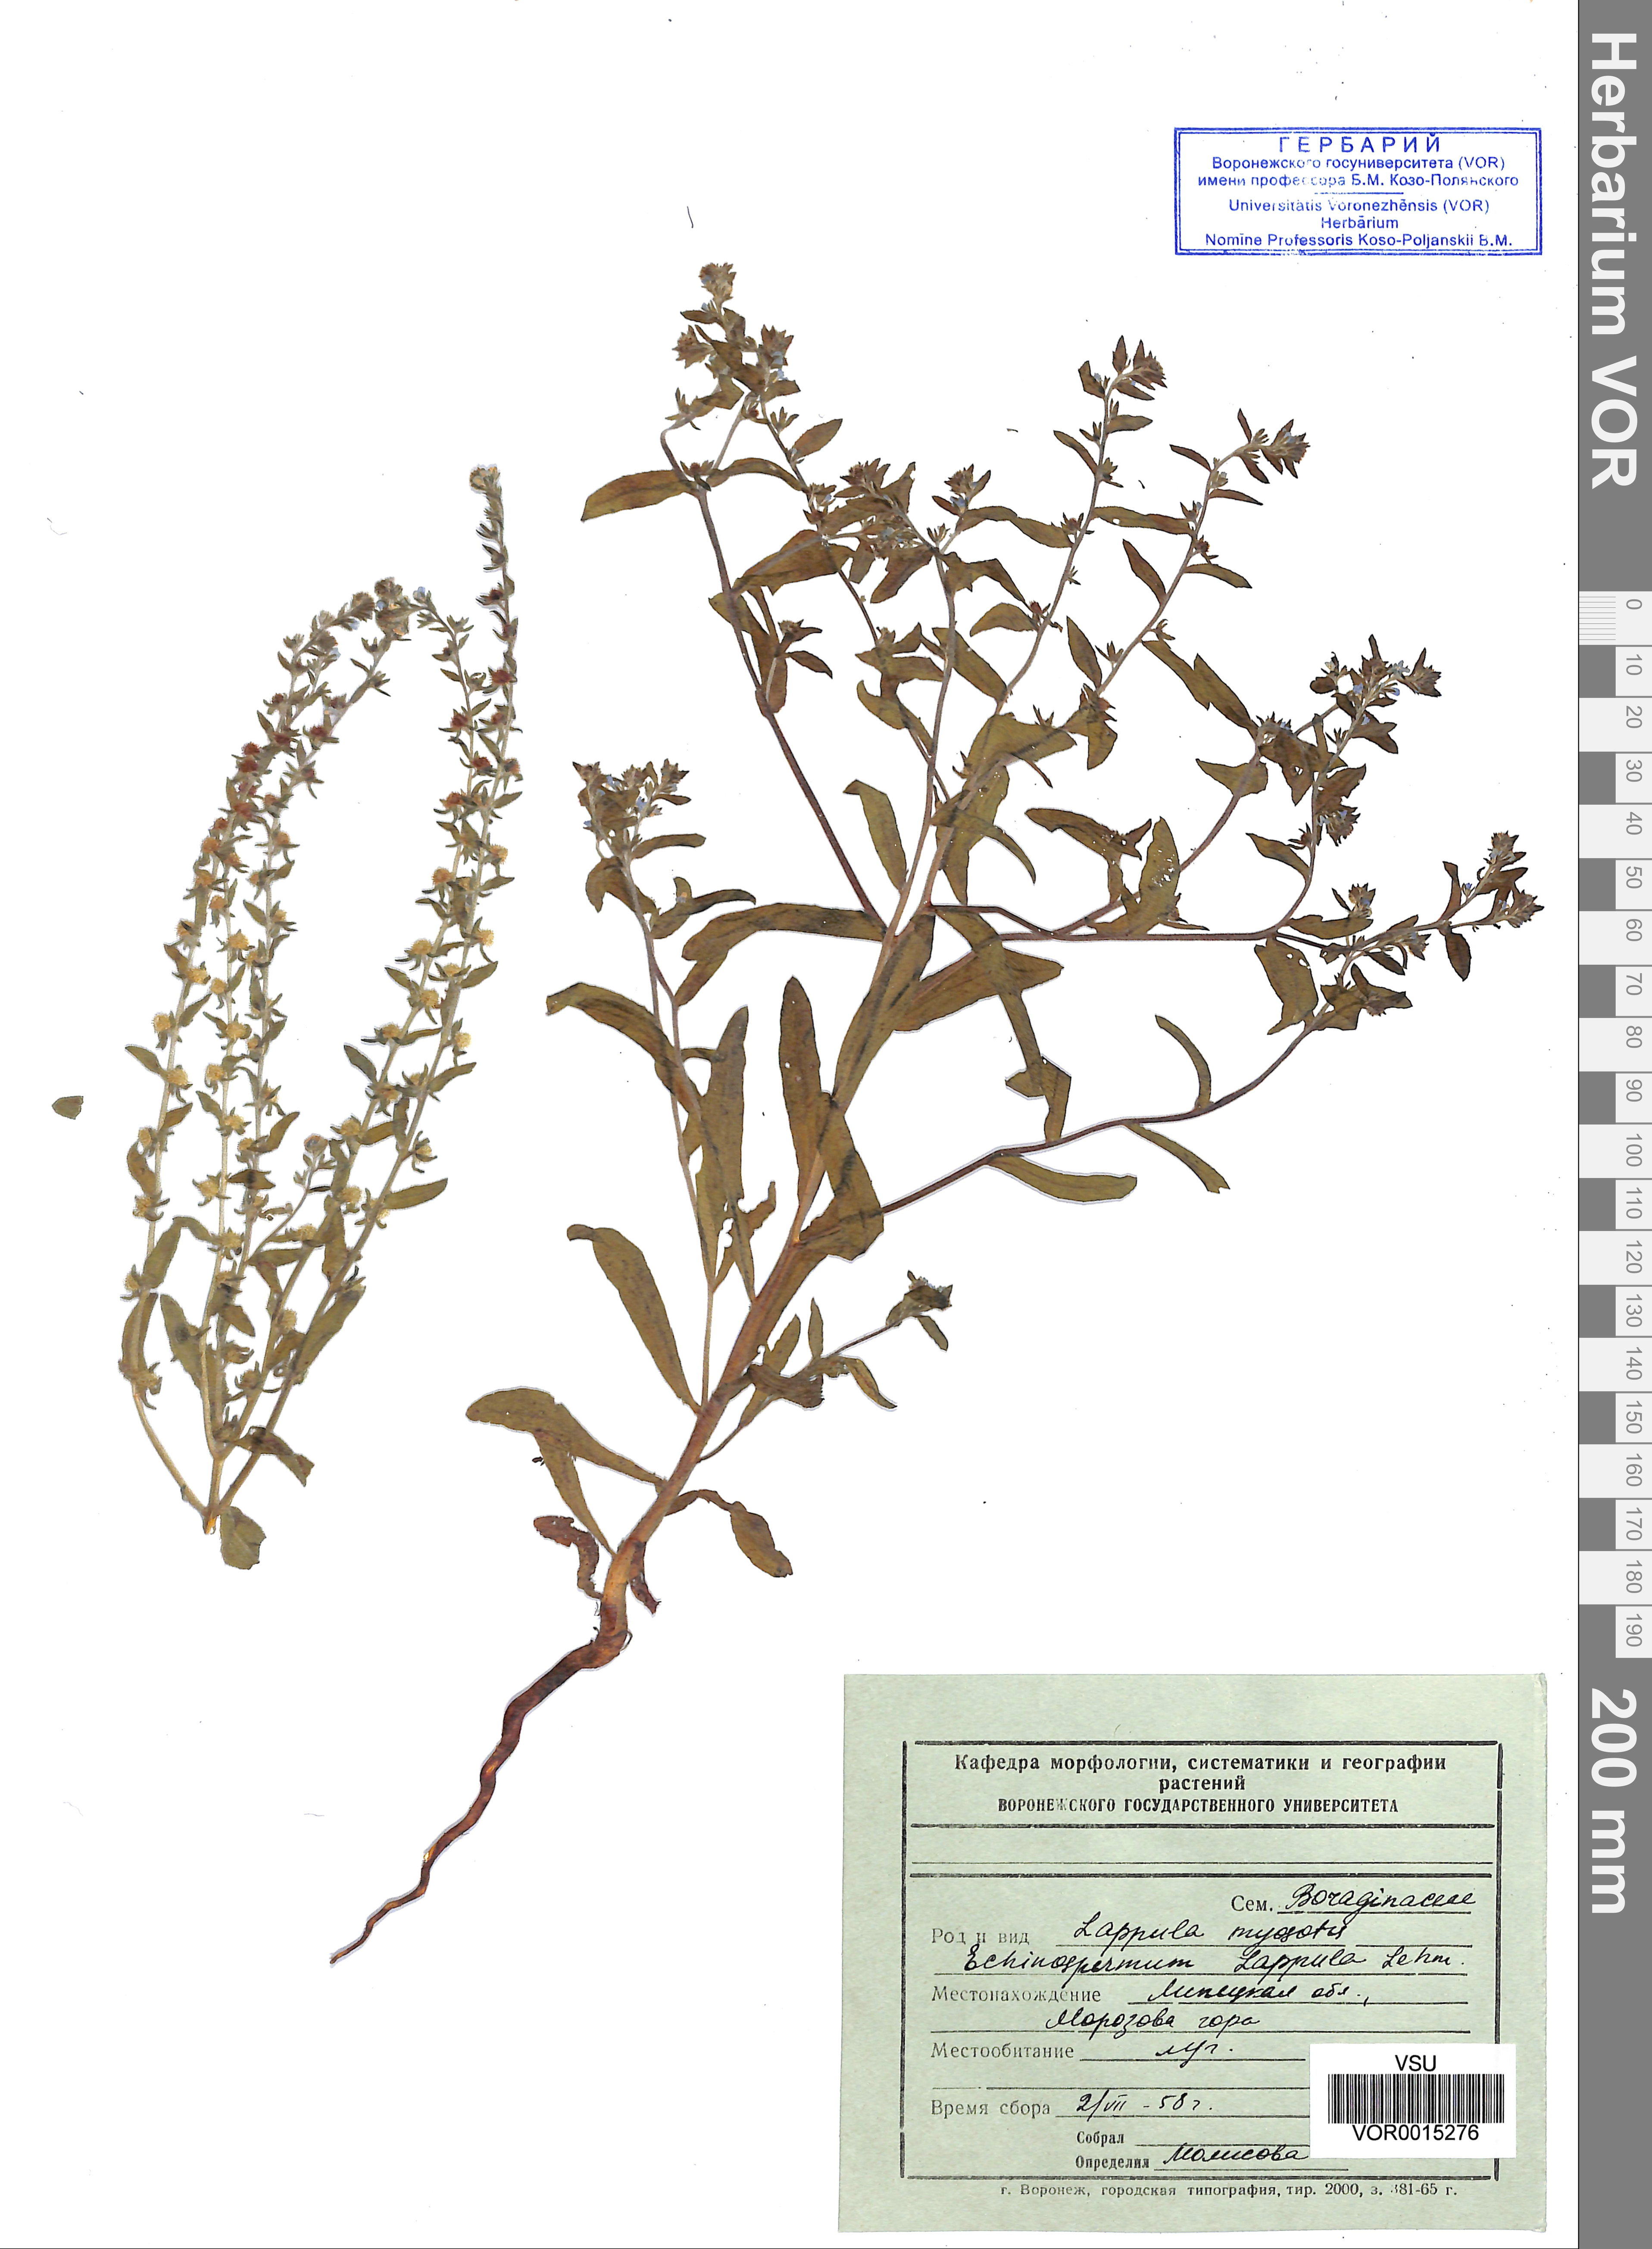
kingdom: Plantae
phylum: Tracheophyta
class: Magnoliopsida
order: Boraginales
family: Boraginaceae
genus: Lappula
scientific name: Lappula squarrosa
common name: European stickseed
